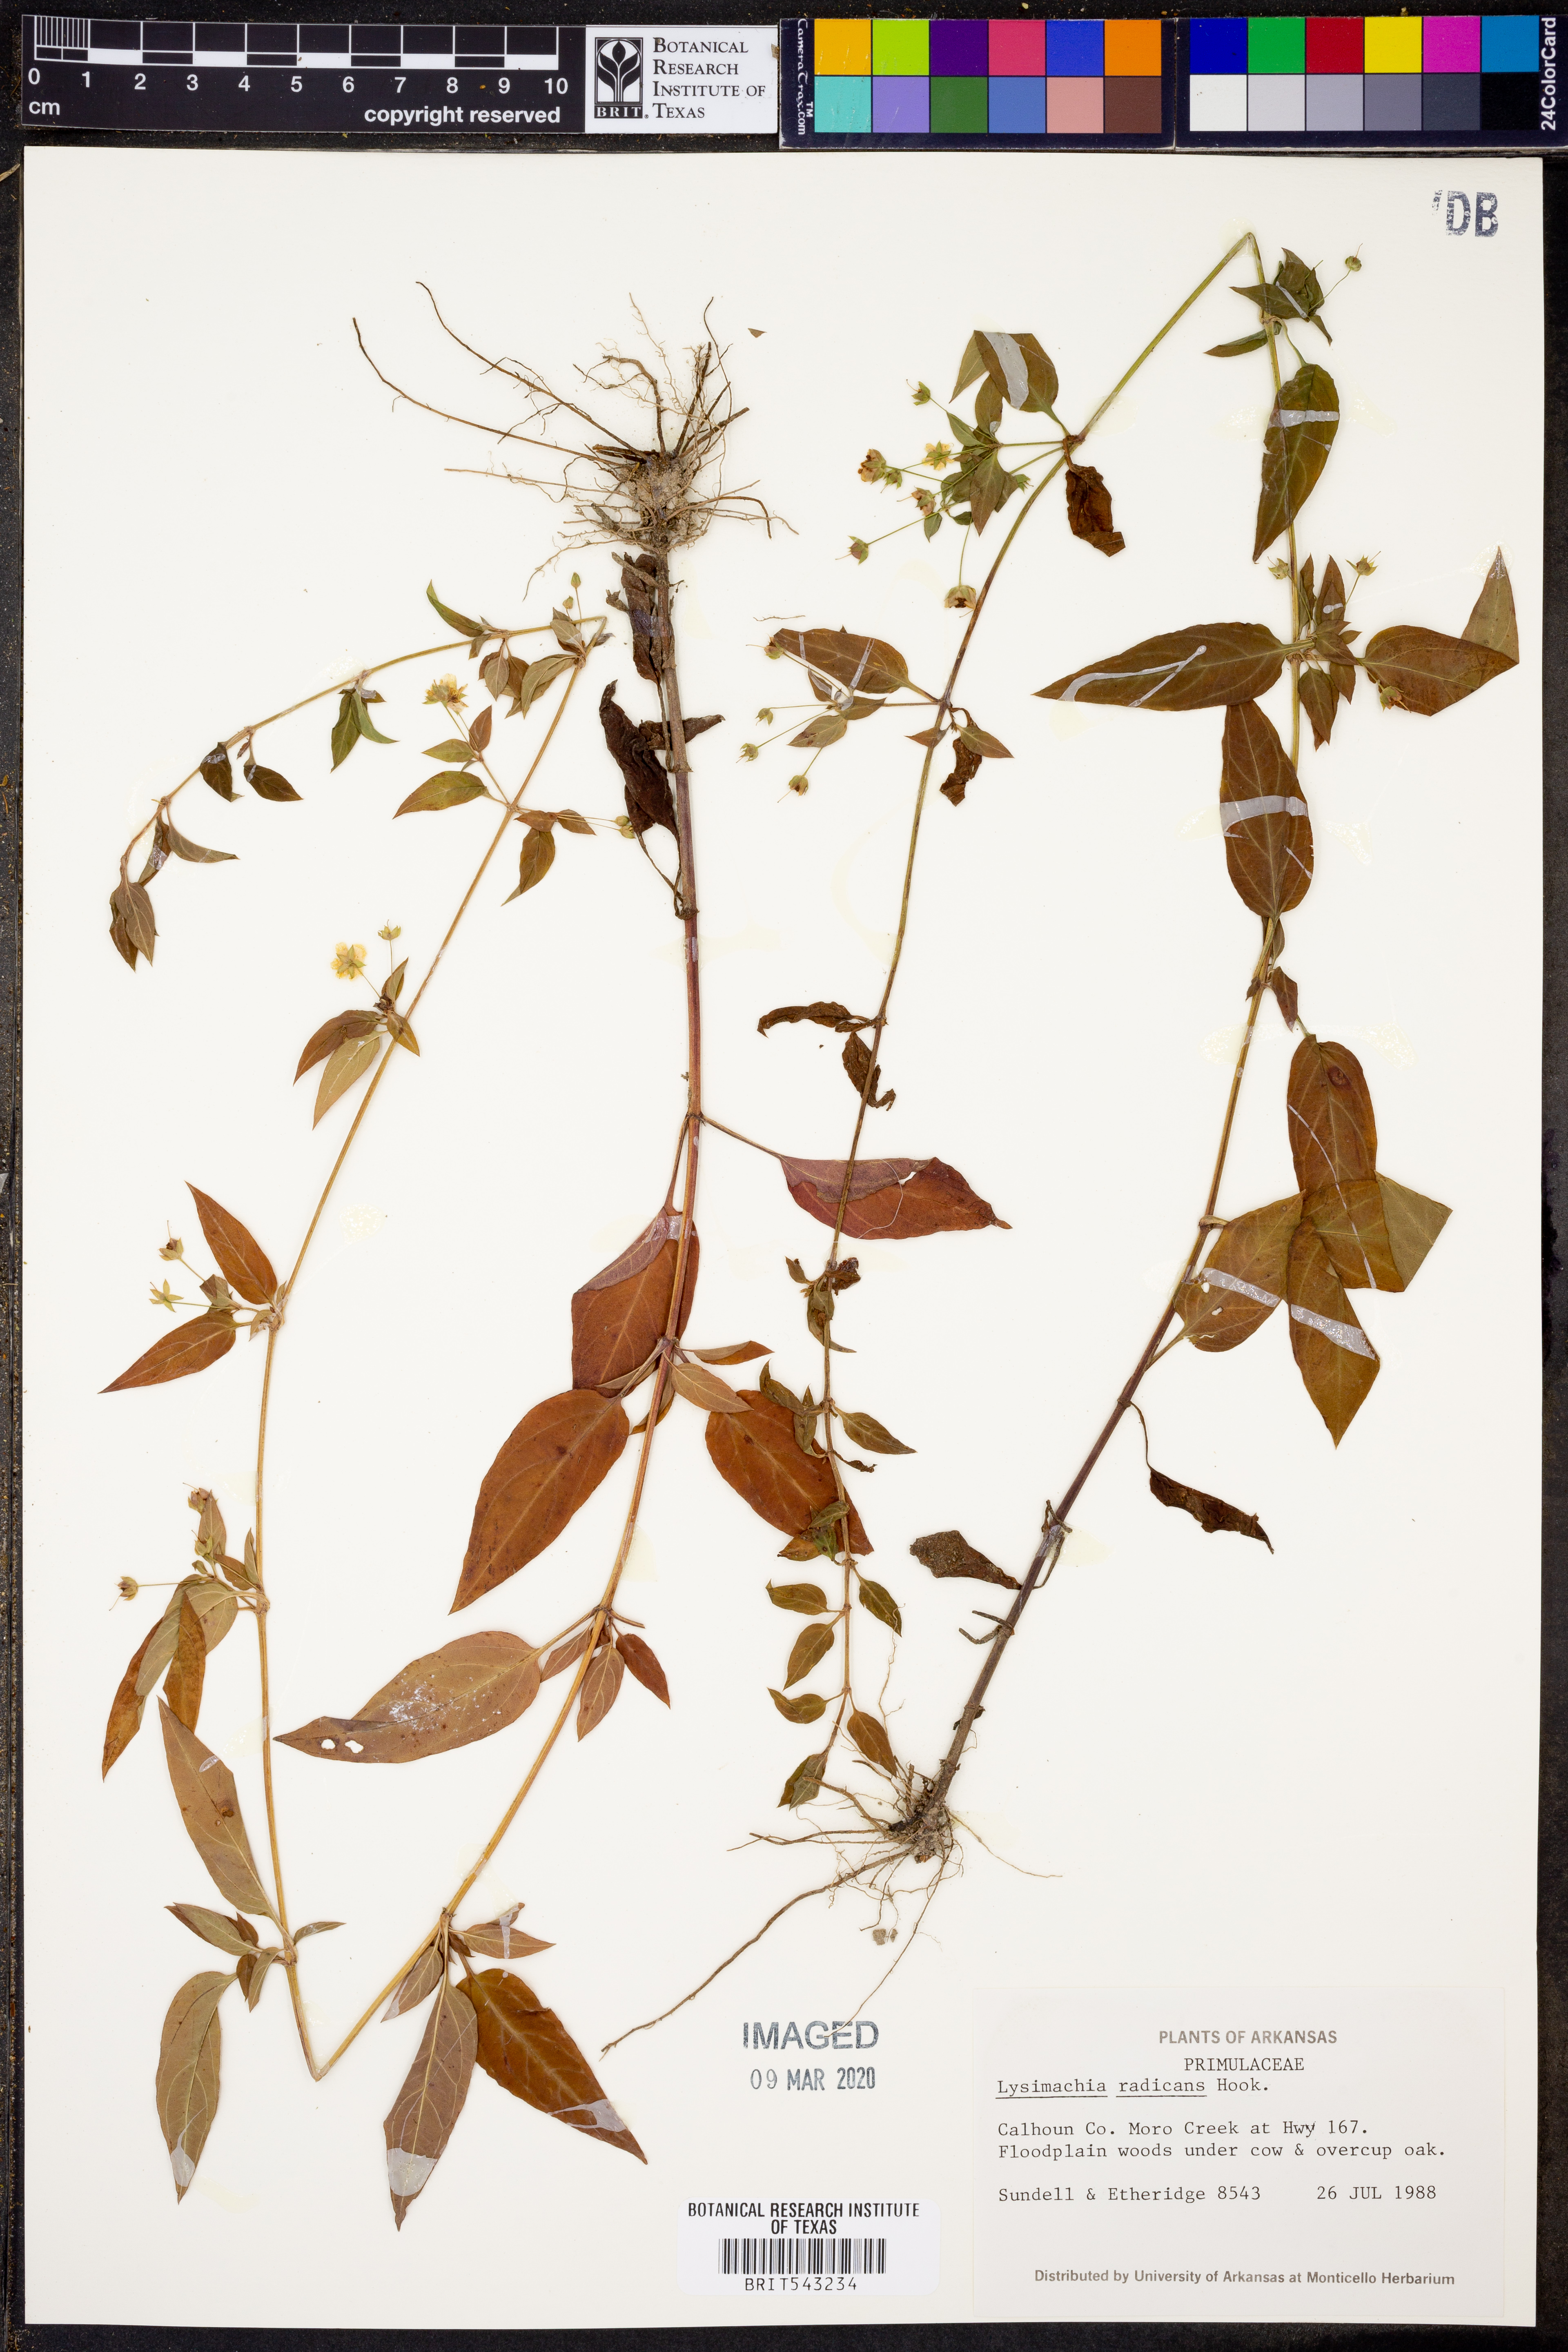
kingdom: Plantae
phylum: Tracheophyta
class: Magnoliopsida
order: Ericales
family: Primulaceae
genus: Lysimachia
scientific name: Lysimachia radicans
